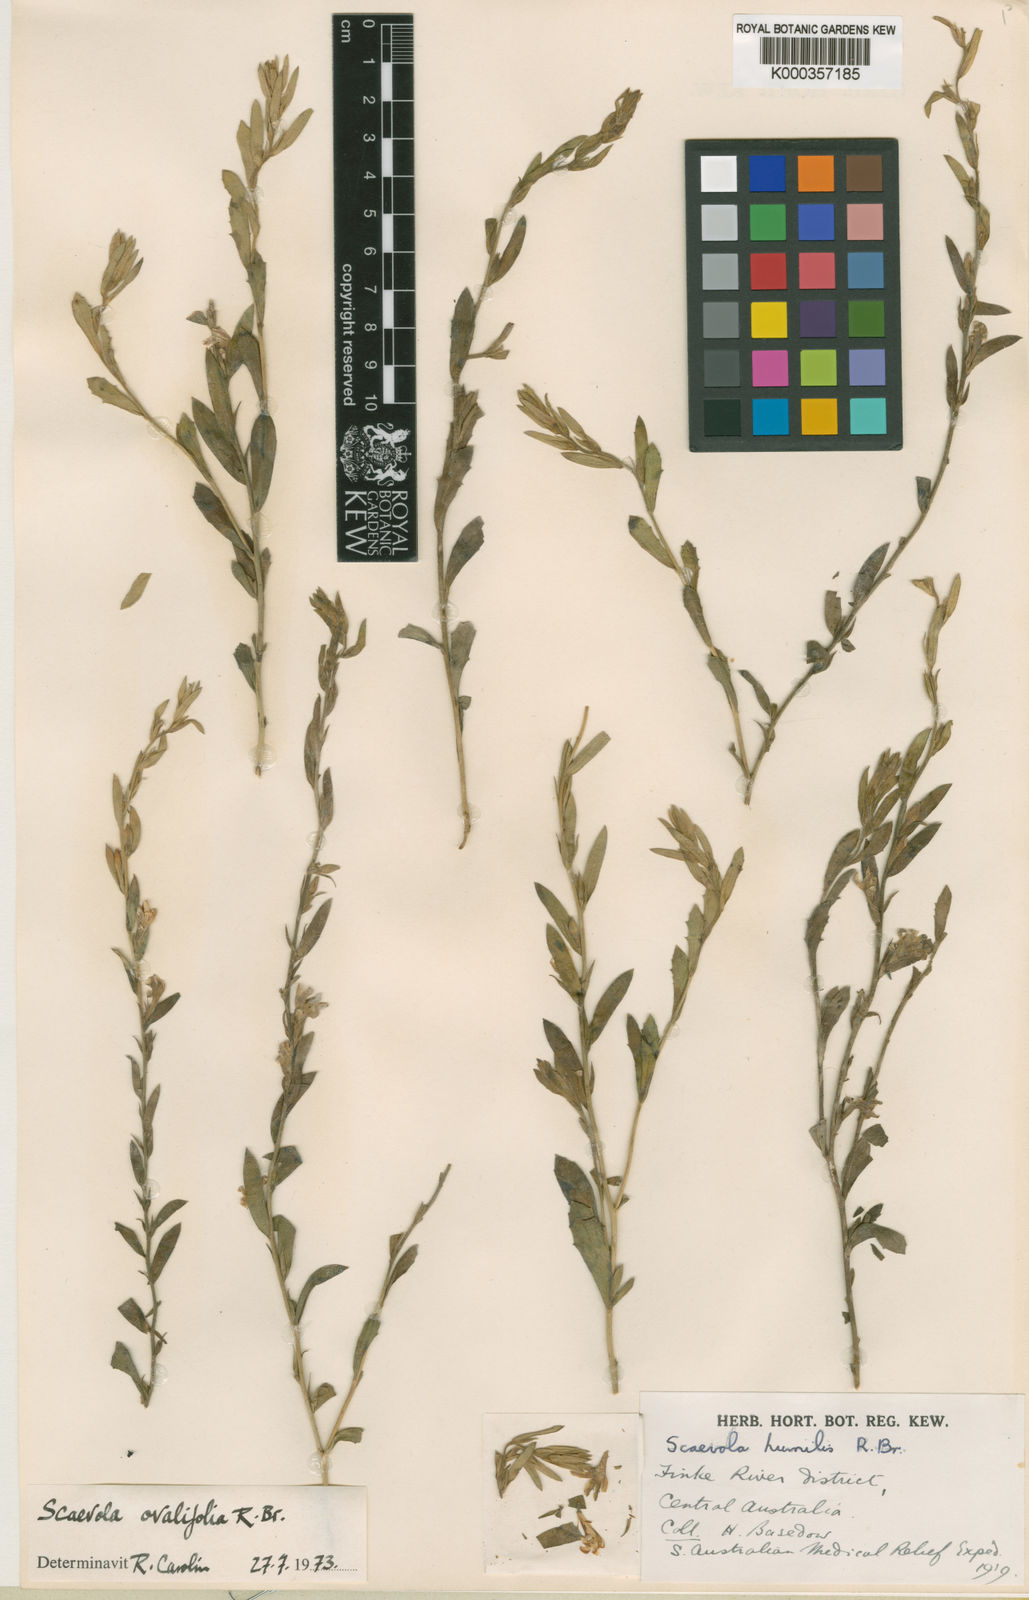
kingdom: Plantae
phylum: Tracheophyta
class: Magnoliopsida
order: Asterales
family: Goodeniaceae
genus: Scaevola
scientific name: Scaevola ovalifolia
